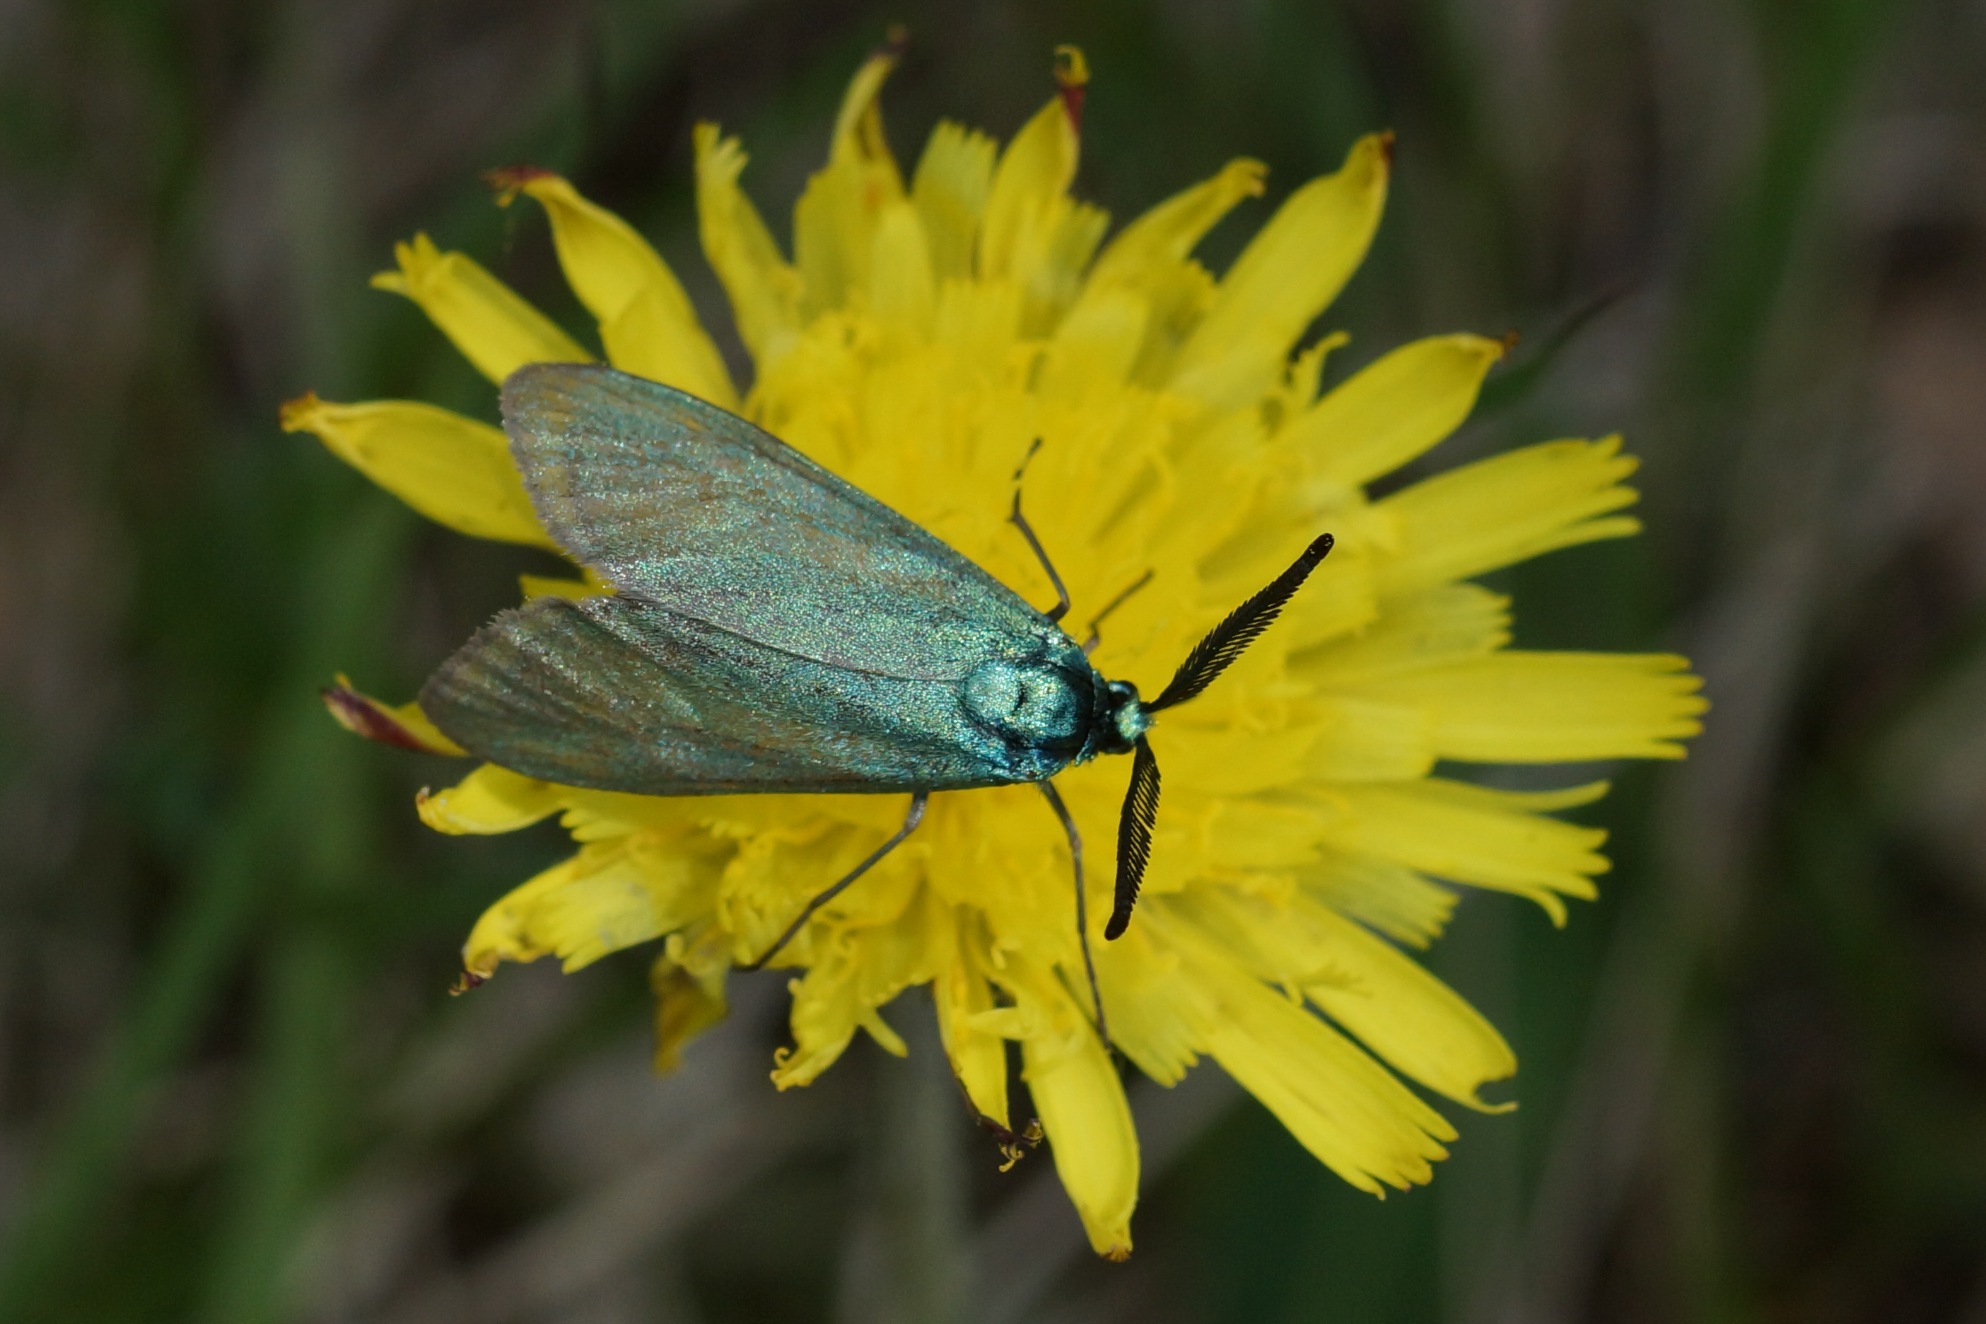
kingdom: Animalia
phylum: Arthropoda
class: Insecta
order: Lepidoptera
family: Zygaenidae
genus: Adscita
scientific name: Adscita statices
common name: Metalvinge
